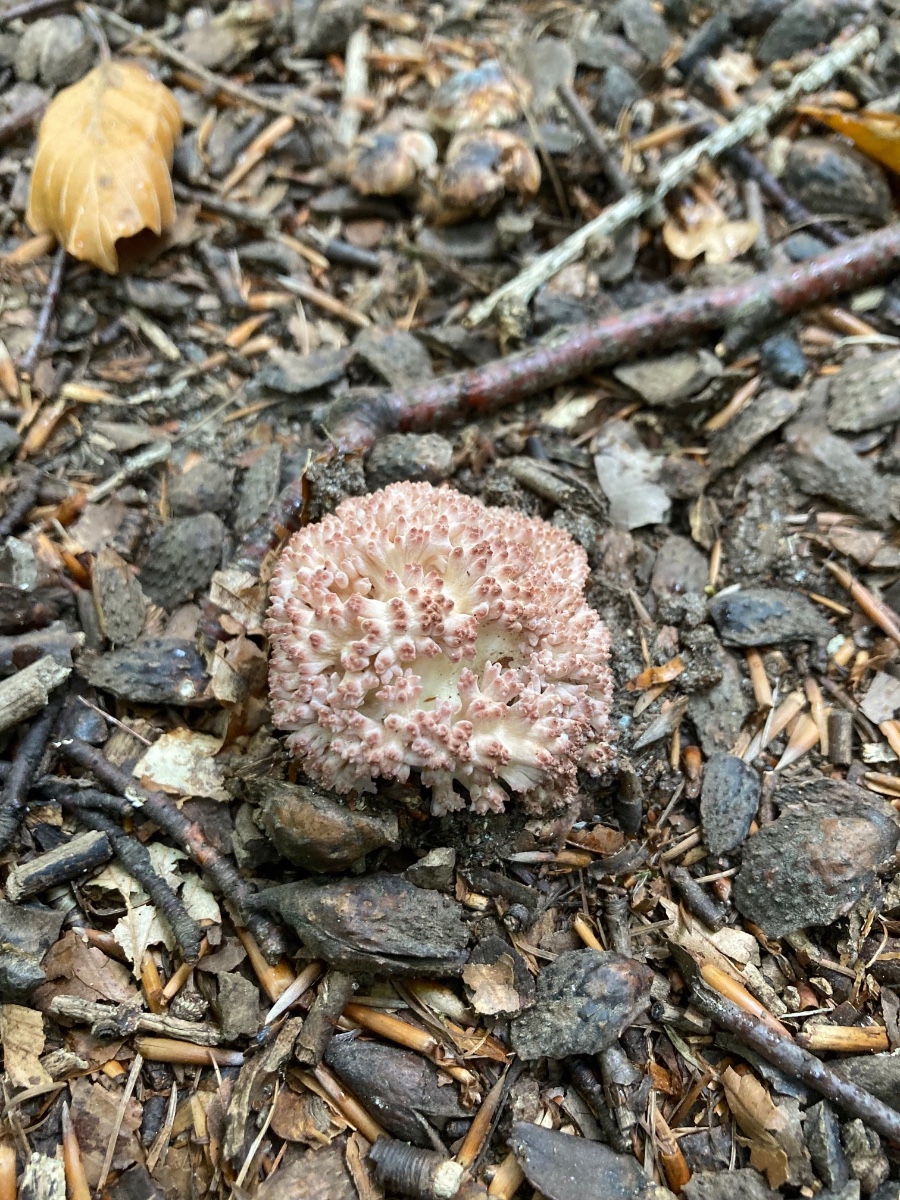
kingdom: Fungi
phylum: Basidiomycota
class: Agaricomycetes
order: Gomphales
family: Gomphaceae
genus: Ramaria
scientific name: Ramaria botrytis
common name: drue-koralsvamp
